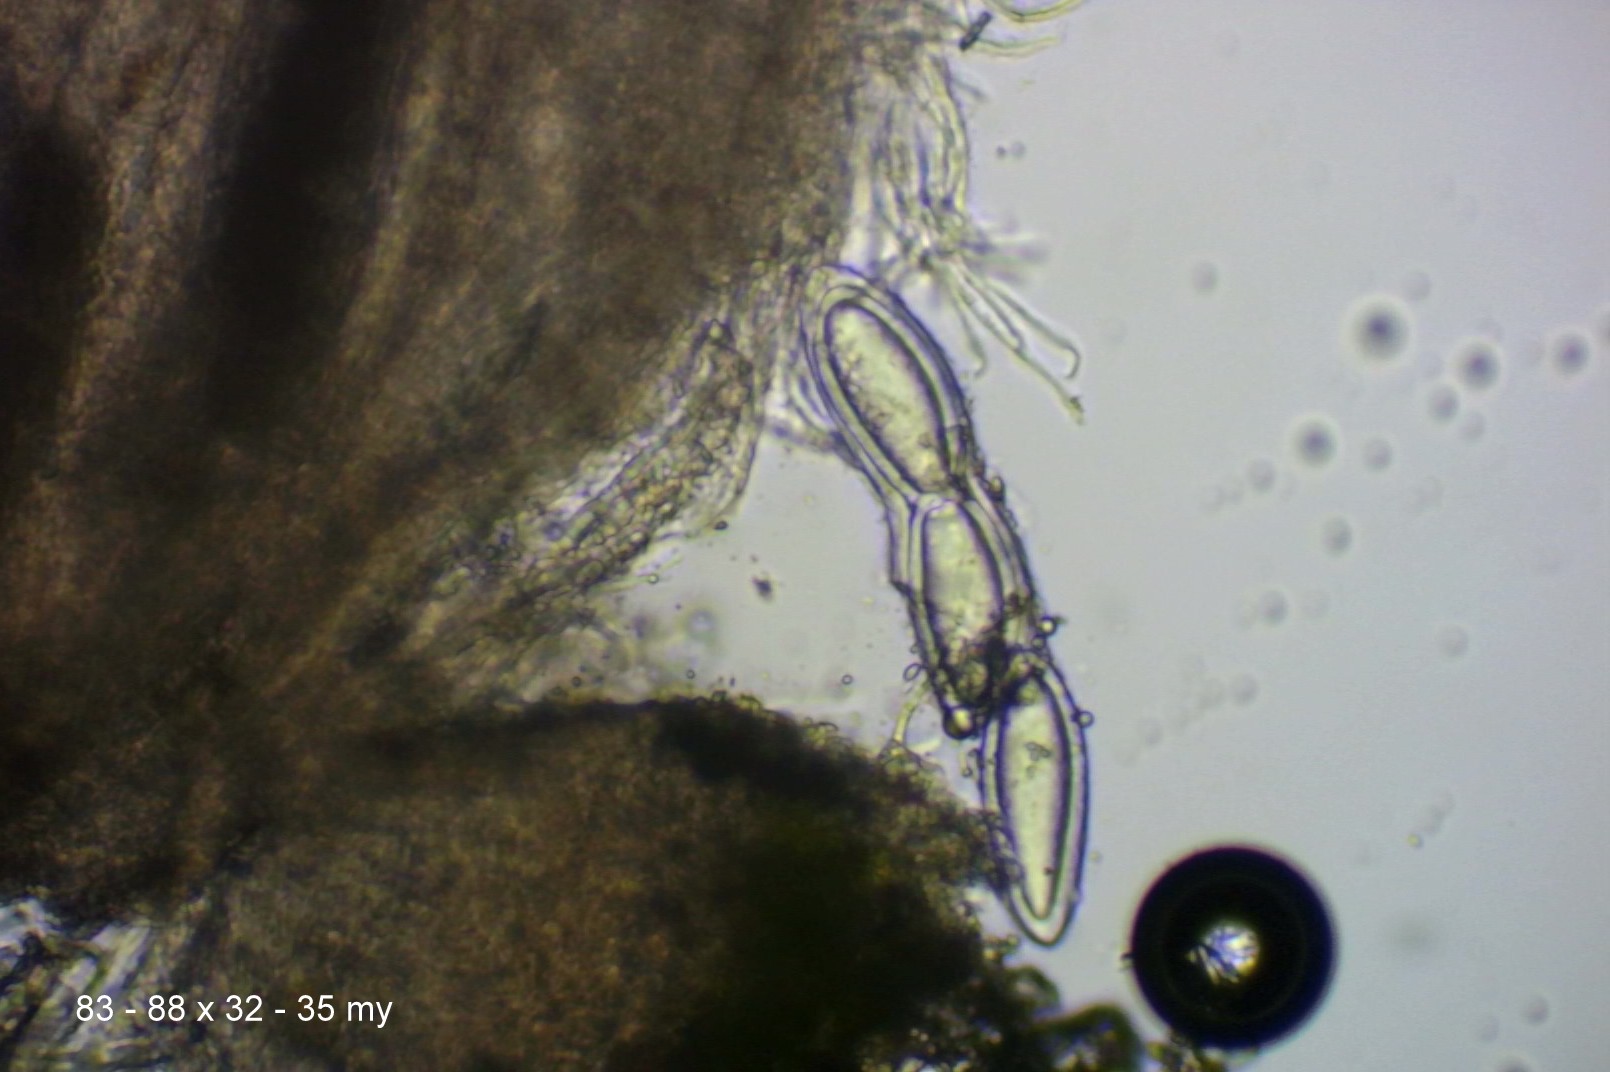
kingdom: Fungi
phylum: Ascomycota
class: Lecanoromycetes
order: Pertusariales
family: Pertusariaceae
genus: Pertusaria
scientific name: Pertusaria hymenea
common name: åben prikvortelav
